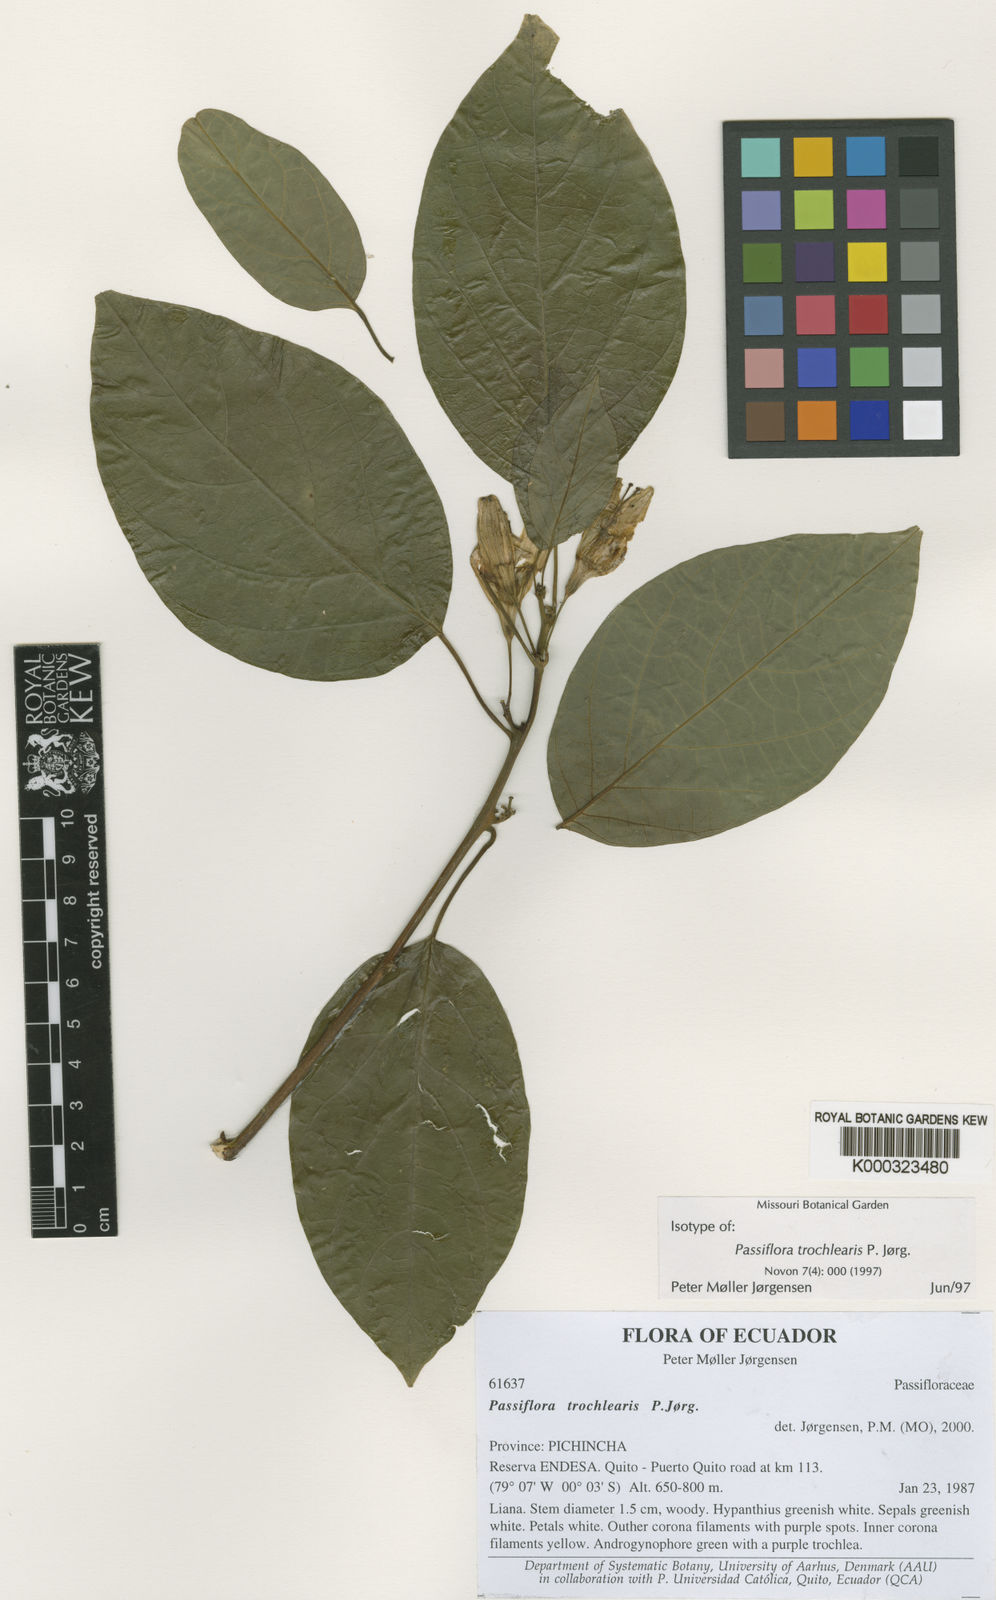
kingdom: Plantae
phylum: Tracheophyta
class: Magnoliopsida
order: Malpighiales
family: Passifloraceae
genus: Passiflora
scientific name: Passiflora
